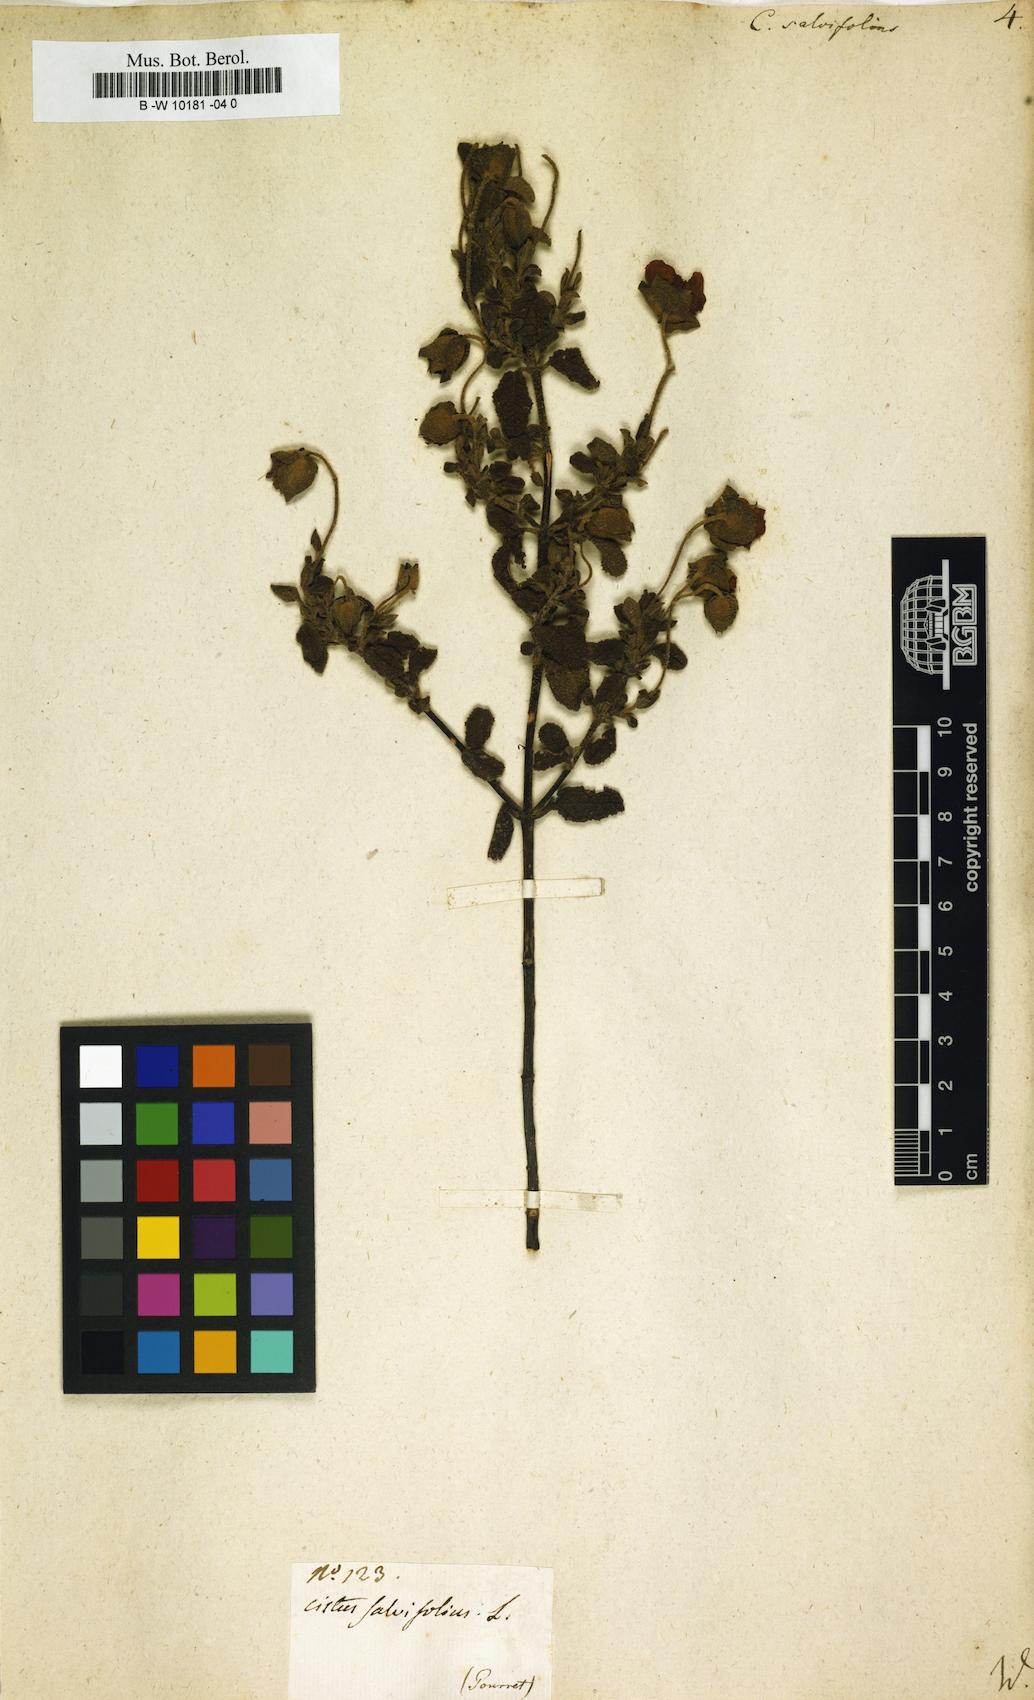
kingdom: Plantae
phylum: Tracheophyta
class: Magnoliopsida
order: Malvales
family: Cistaceae
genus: Cistus
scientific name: Cistus salviifolius
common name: Salvia cistus
